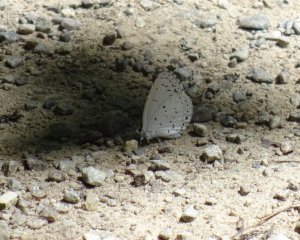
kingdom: Animalia
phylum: Arthropoda
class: Insecta
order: Lepidoptera
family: Lycaenidae
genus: Cyaniris
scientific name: Cyaniris neglecta
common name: Summer Azure
